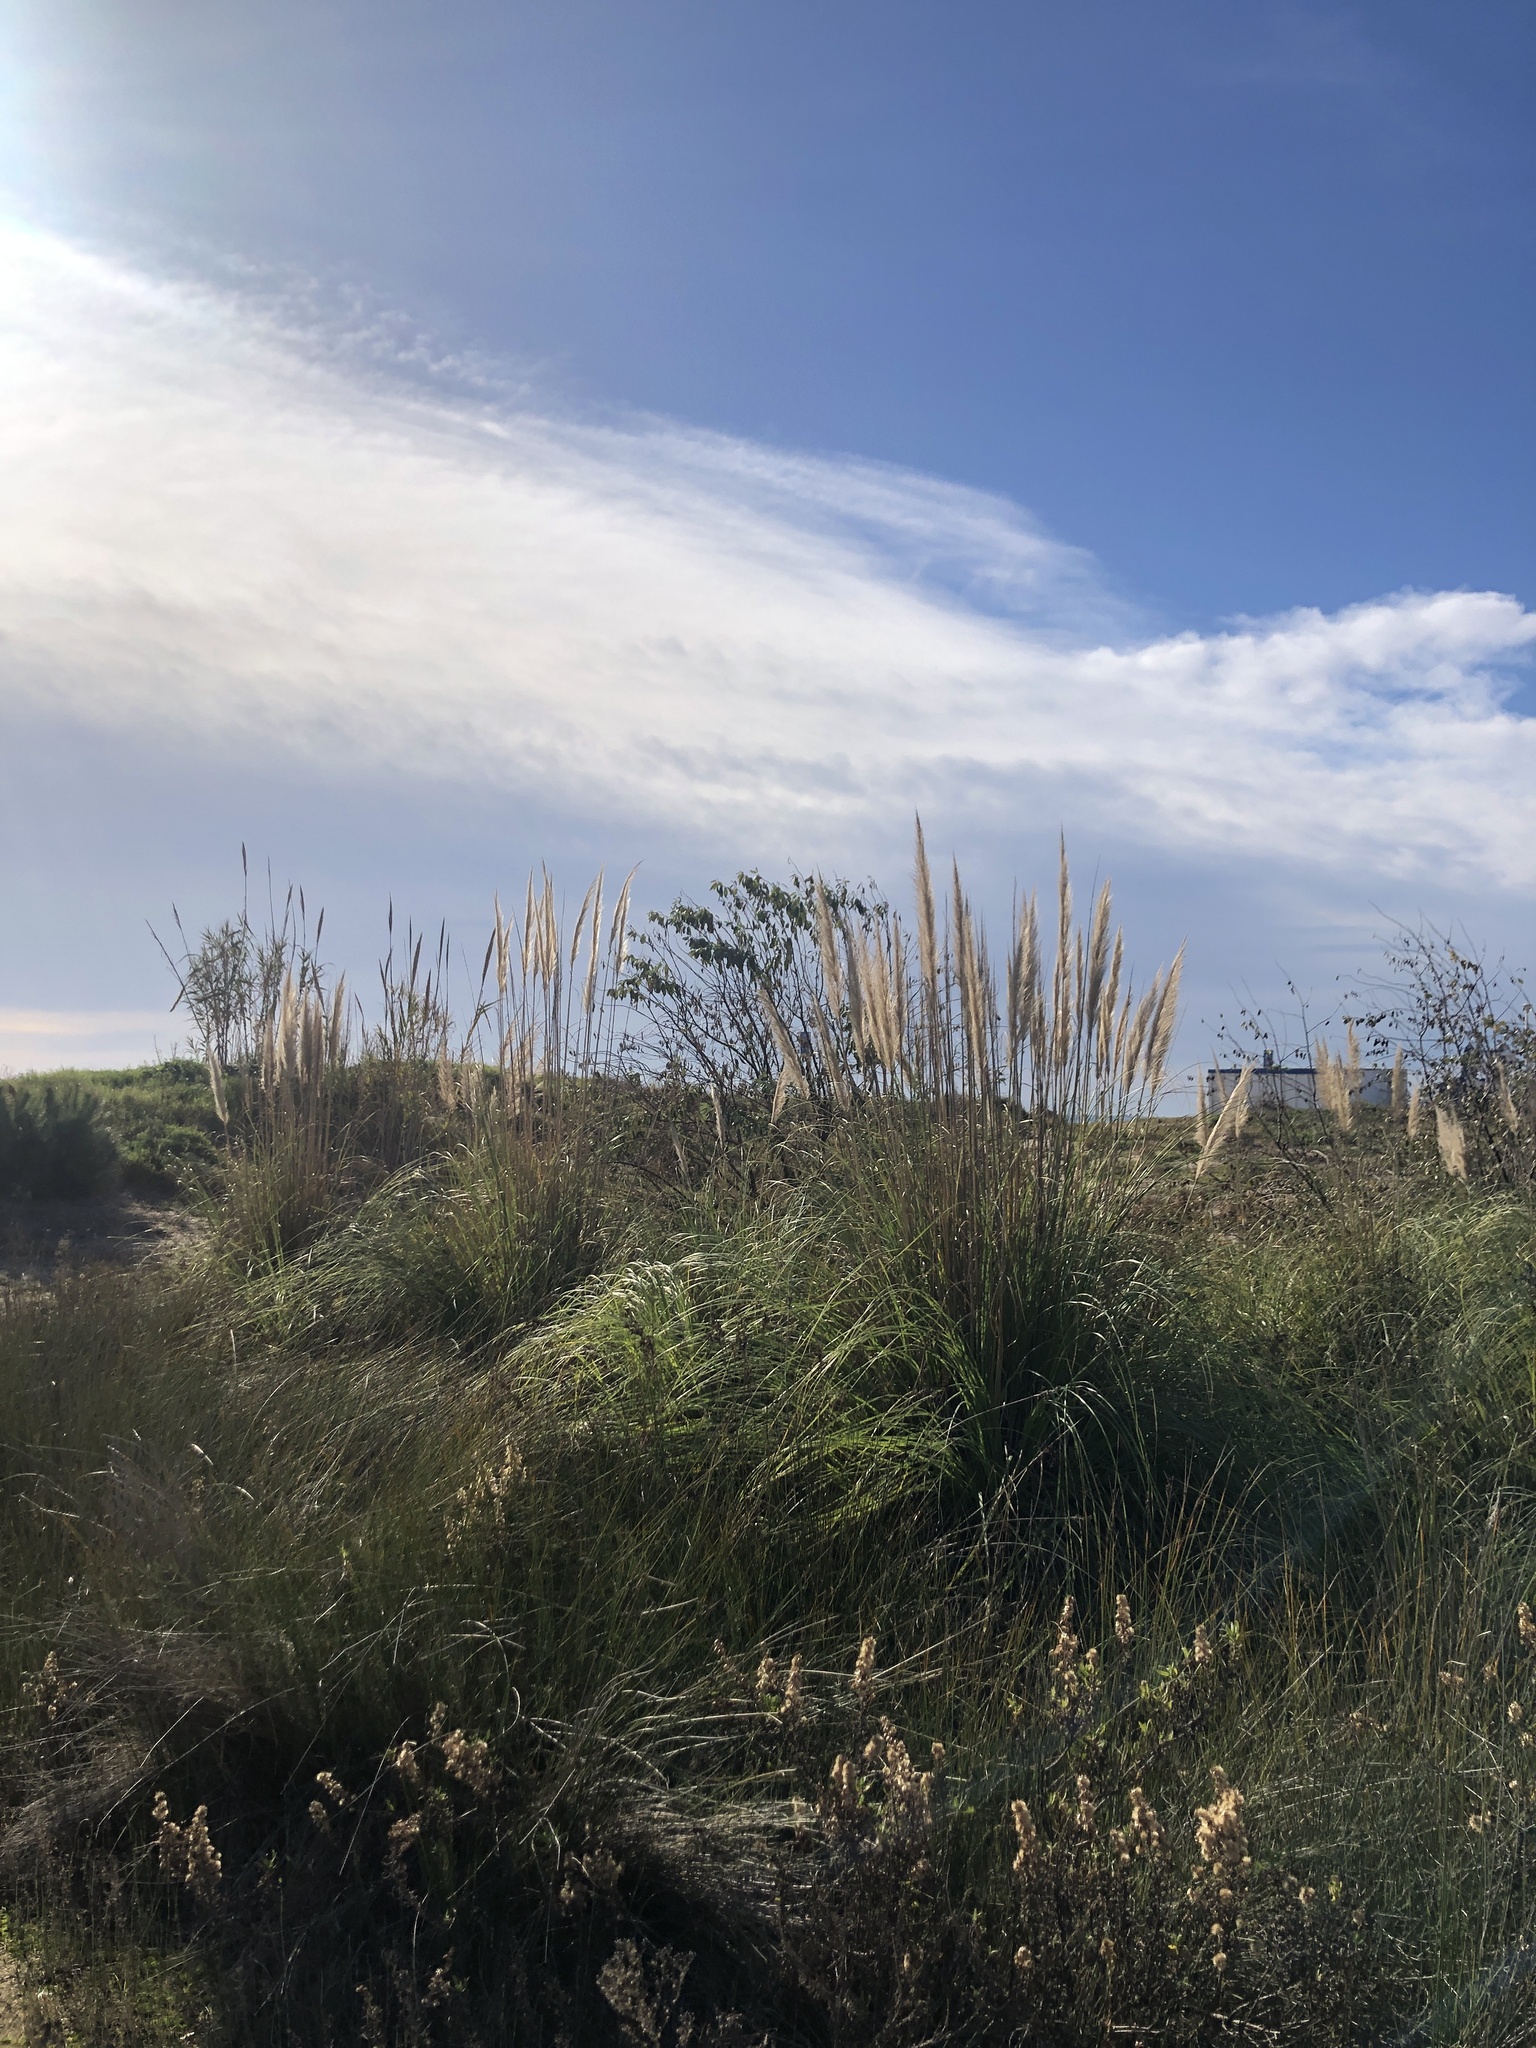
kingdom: Plantae
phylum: Tracheophyta
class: Liliopsida
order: Poales
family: Poaceae
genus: Cortaderia
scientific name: Cortaderia selloana
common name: Uruguayan pampas grass
